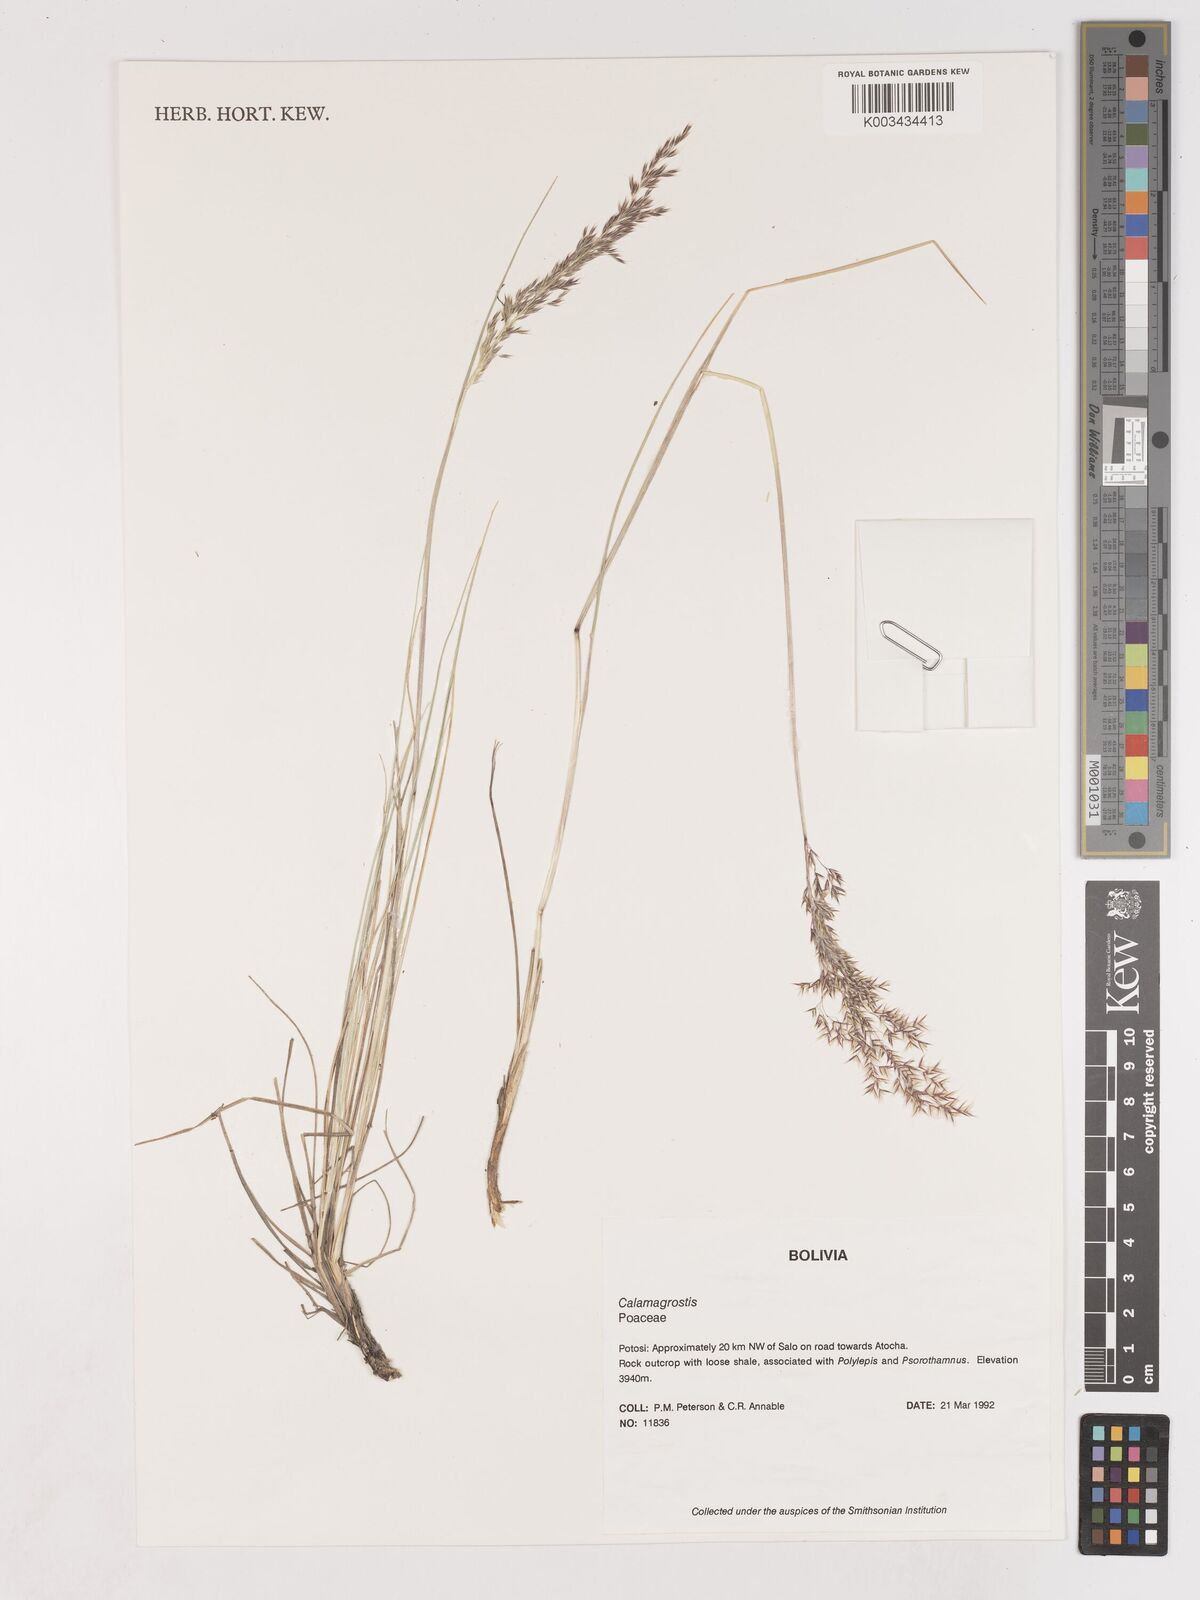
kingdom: Plantae
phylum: Tracheophyta
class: Liliopsida
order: Poales
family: Poaceae
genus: Cinnagrostis
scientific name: Cinnagrostis filifolia
